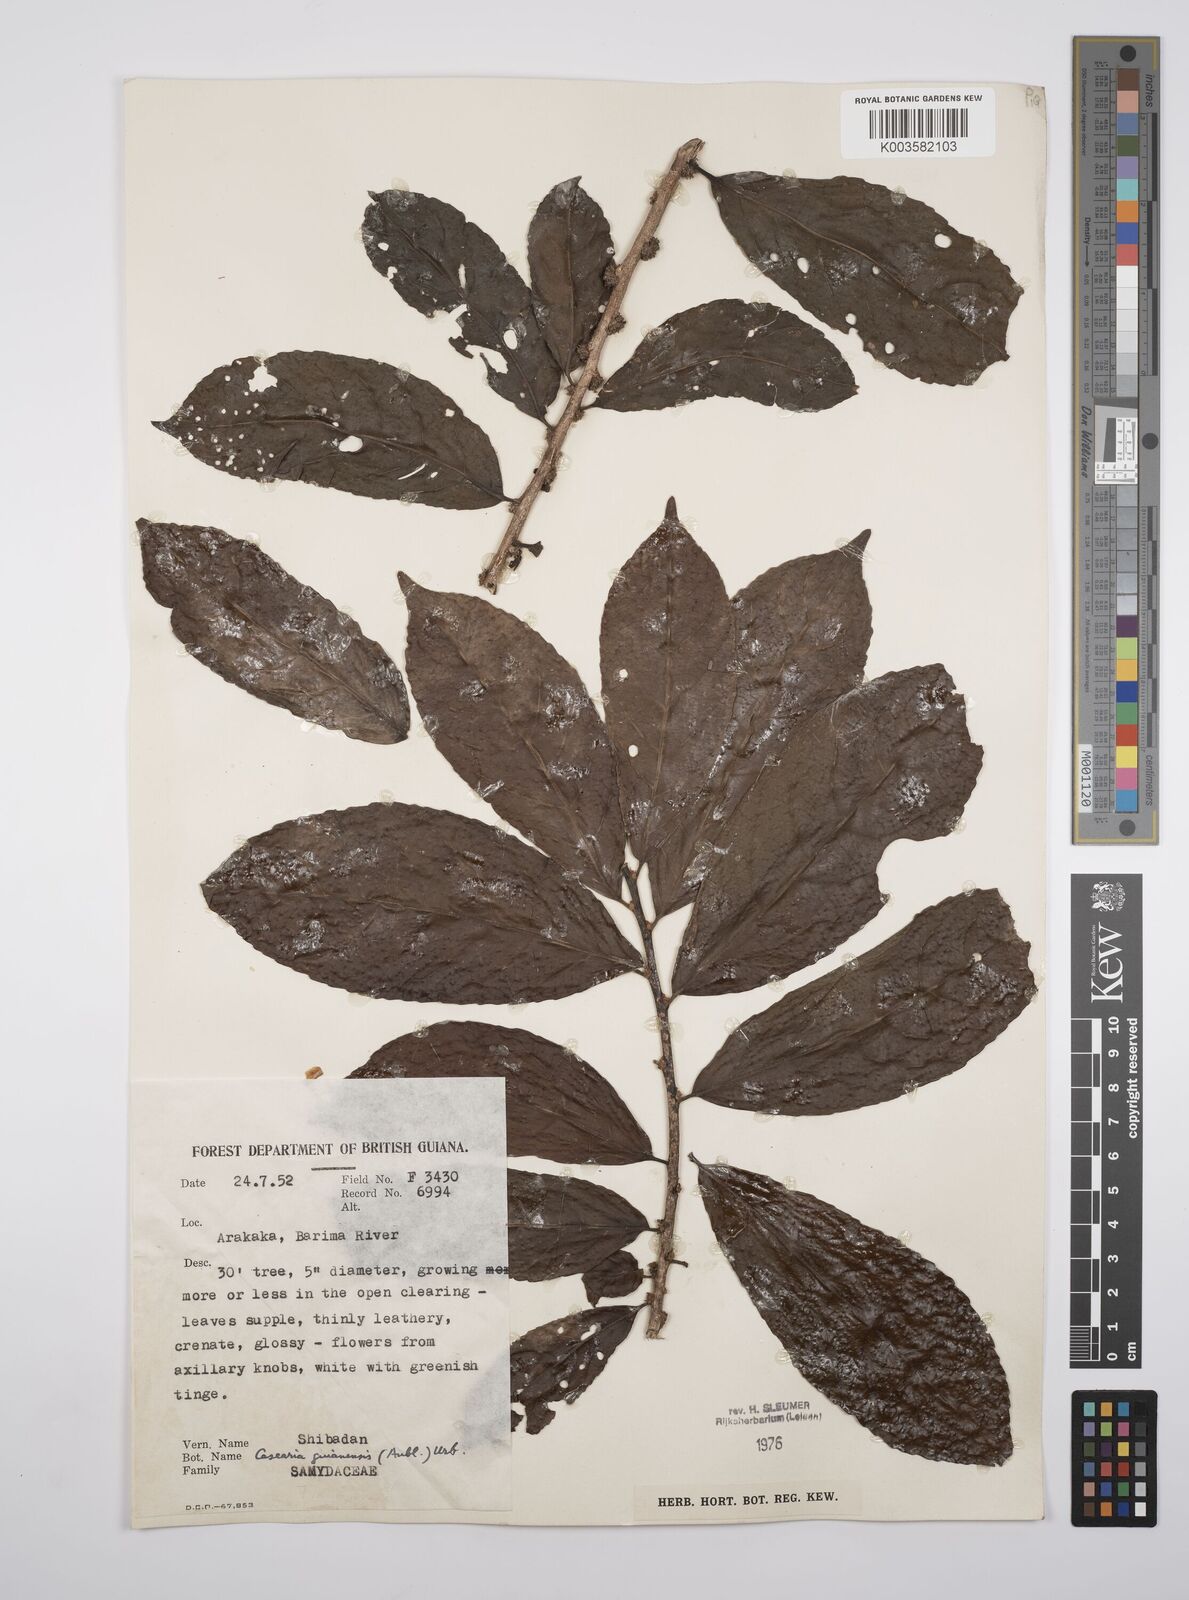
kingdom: Plantae
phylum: Tracheophyta
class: Magnoliopsida
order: Malpighiales
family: Salicaceae
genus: Casearia
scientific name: Casearia guianensis
